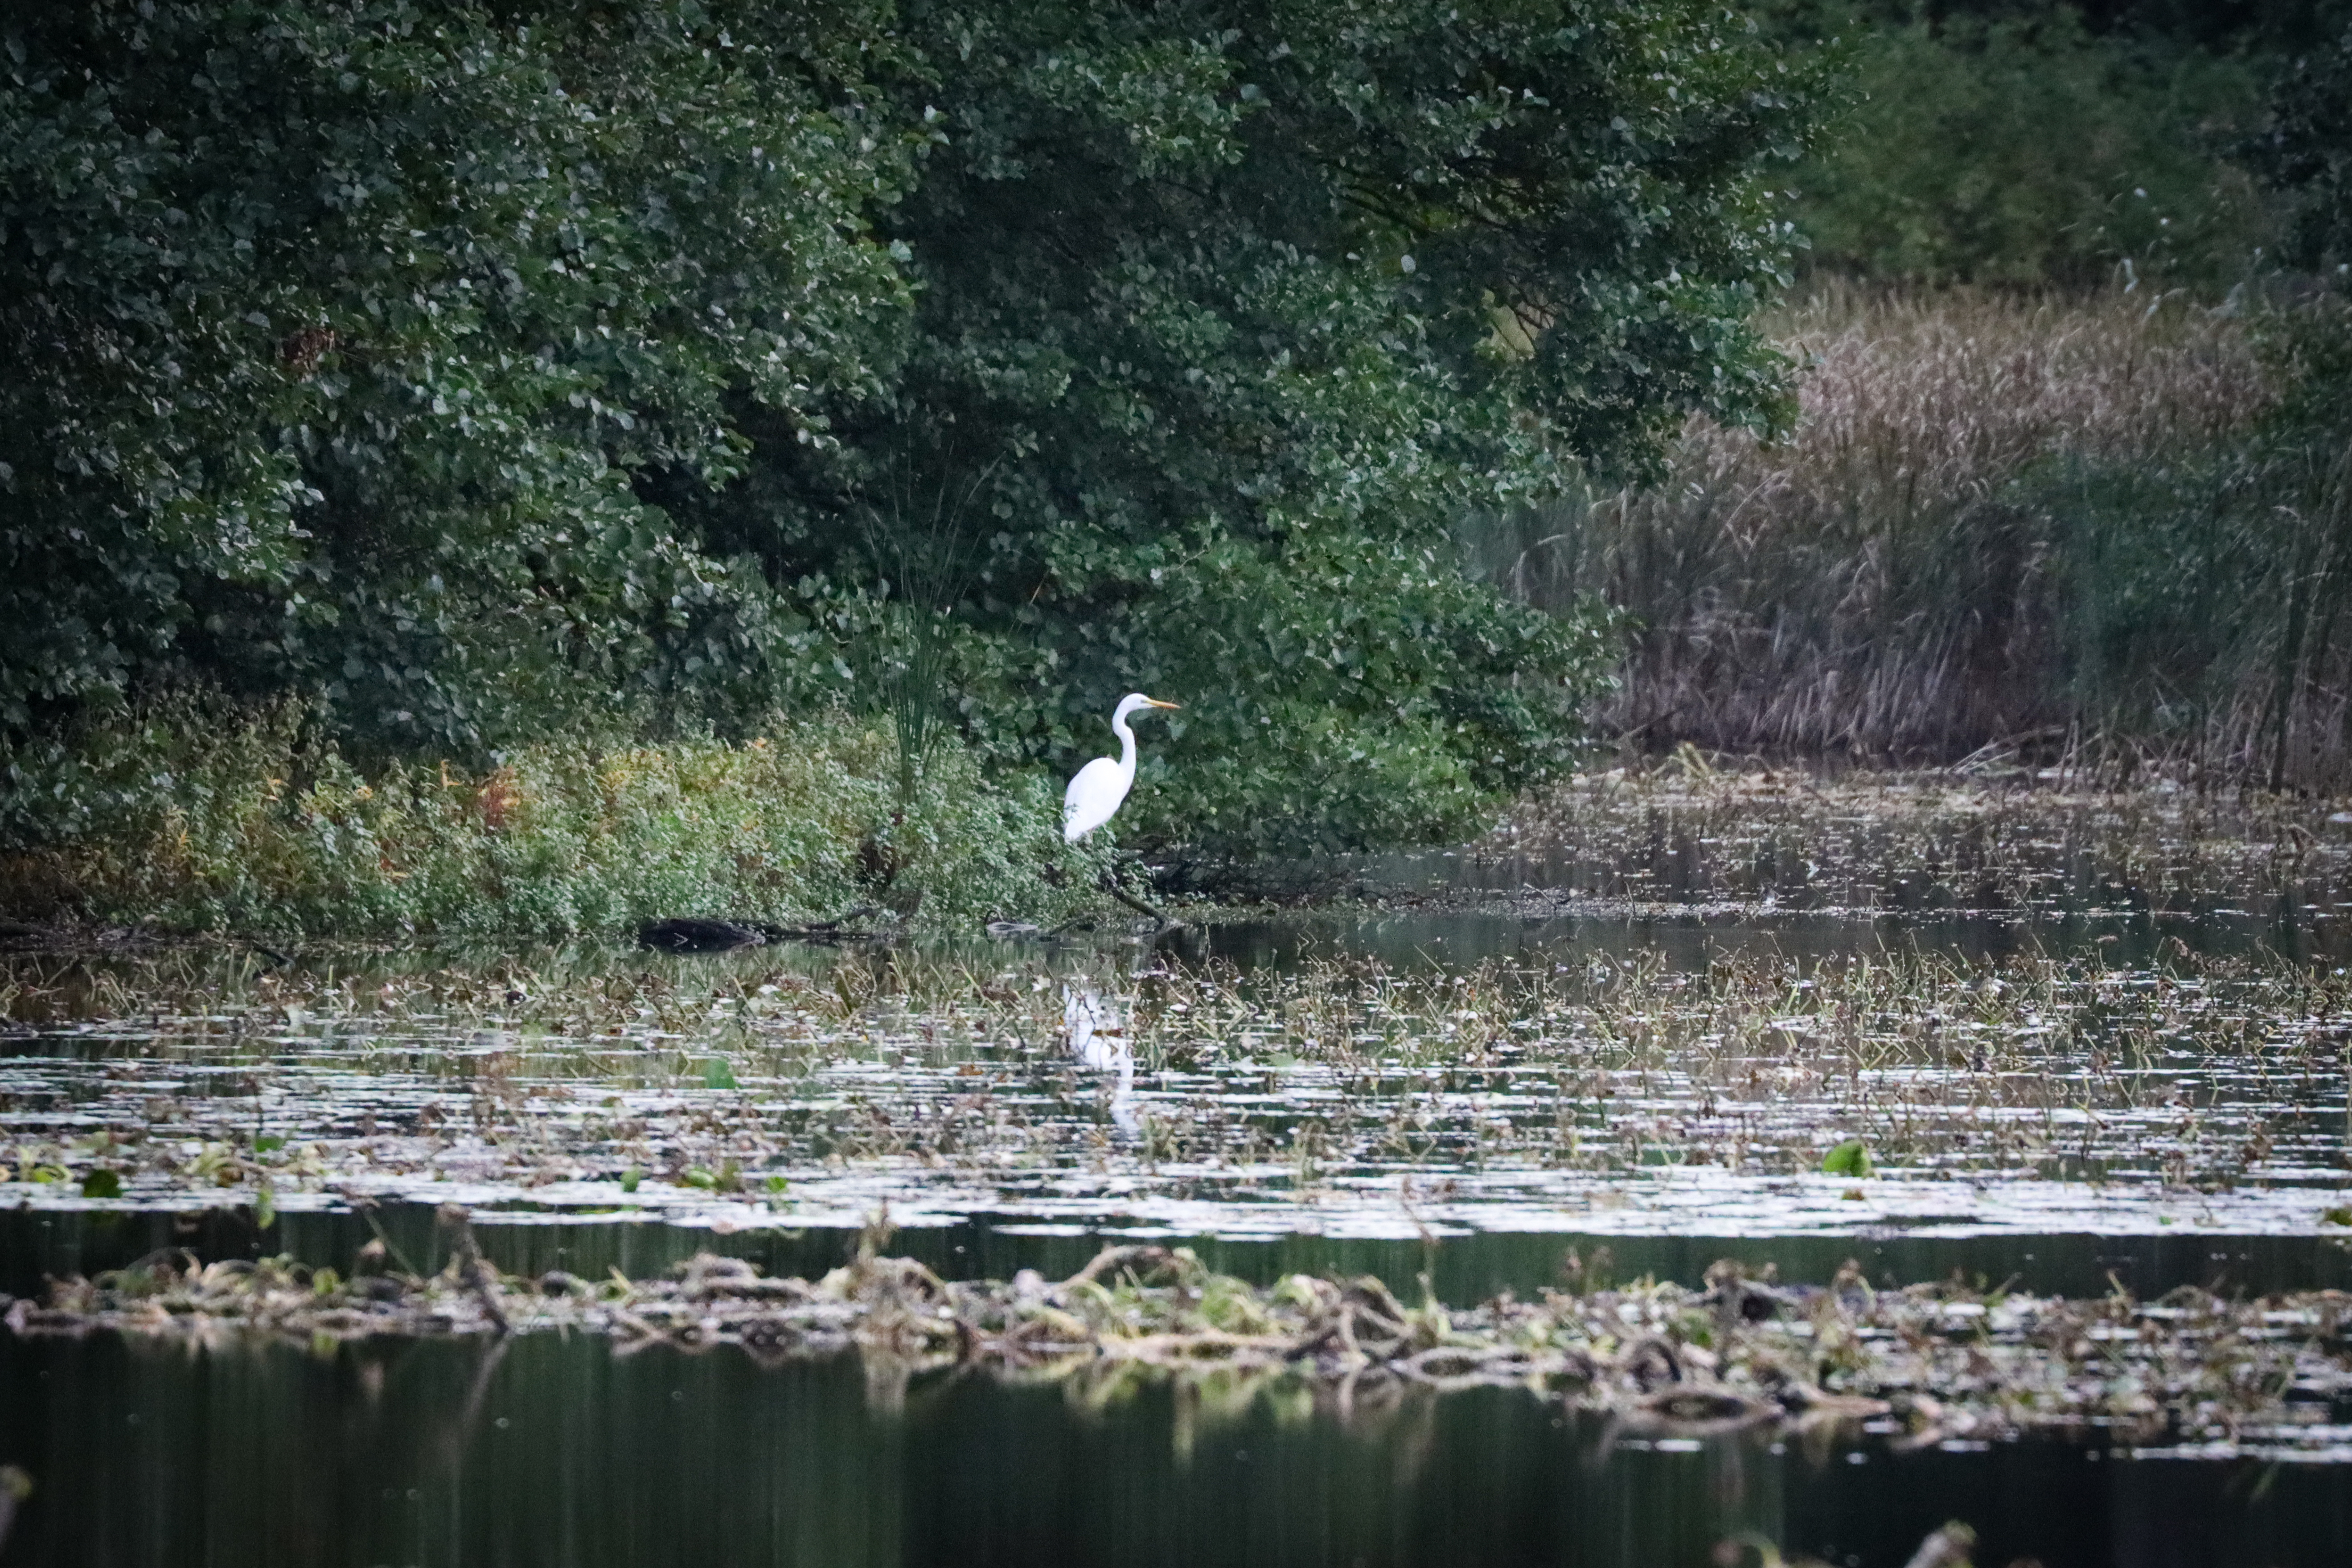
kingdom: Animalia
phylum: Chordata
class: Aves
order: Pelecaniformes
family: Ardeidae
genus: Ardea
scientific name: Ardea alba
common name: Sølvhejre
